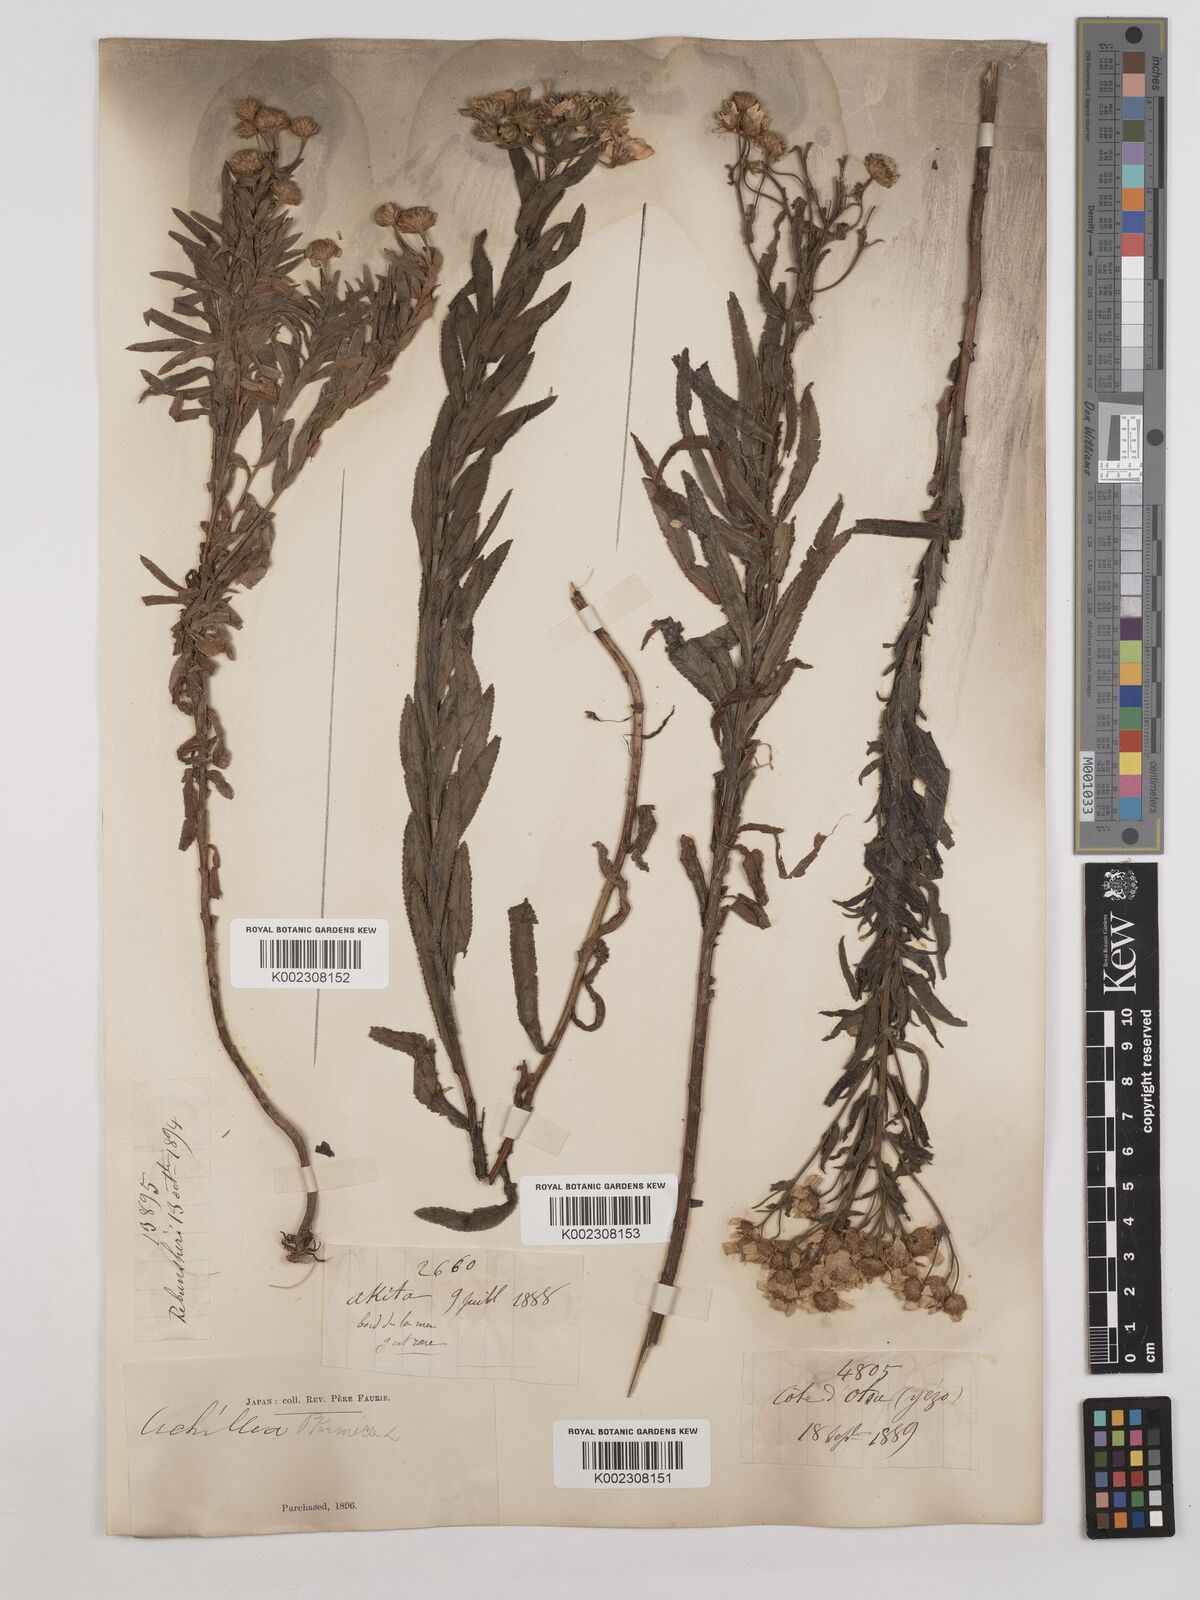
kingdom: Plantae
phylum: Tracheophyta
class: Magnoliopsida
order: Asterales
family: Asteraceae
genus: Achillea
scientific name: Achillea ptarmica
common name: Sneezeweed
